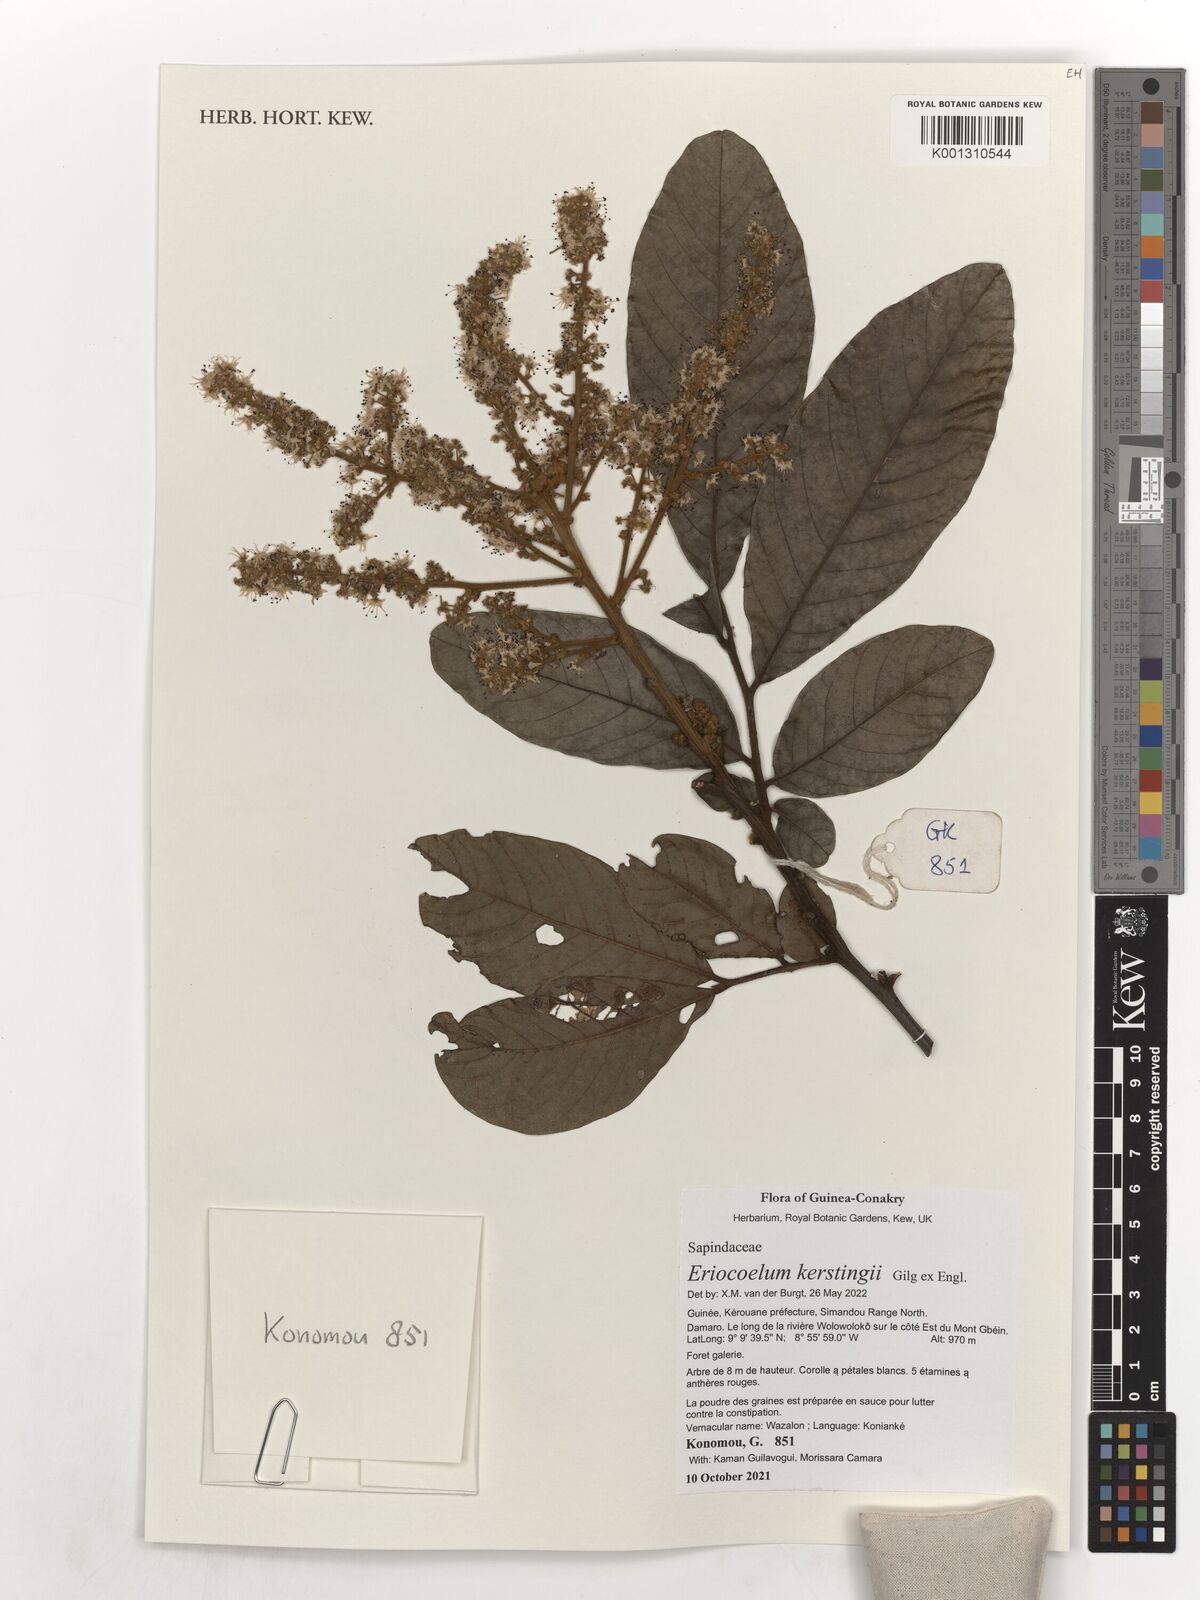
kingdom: Plantae
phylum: Tracheophyta
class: Magnoliopsida
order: Sapindales
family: Sapindaceae
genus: Eriocoelum
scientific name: Eriocoelum kerstingii
